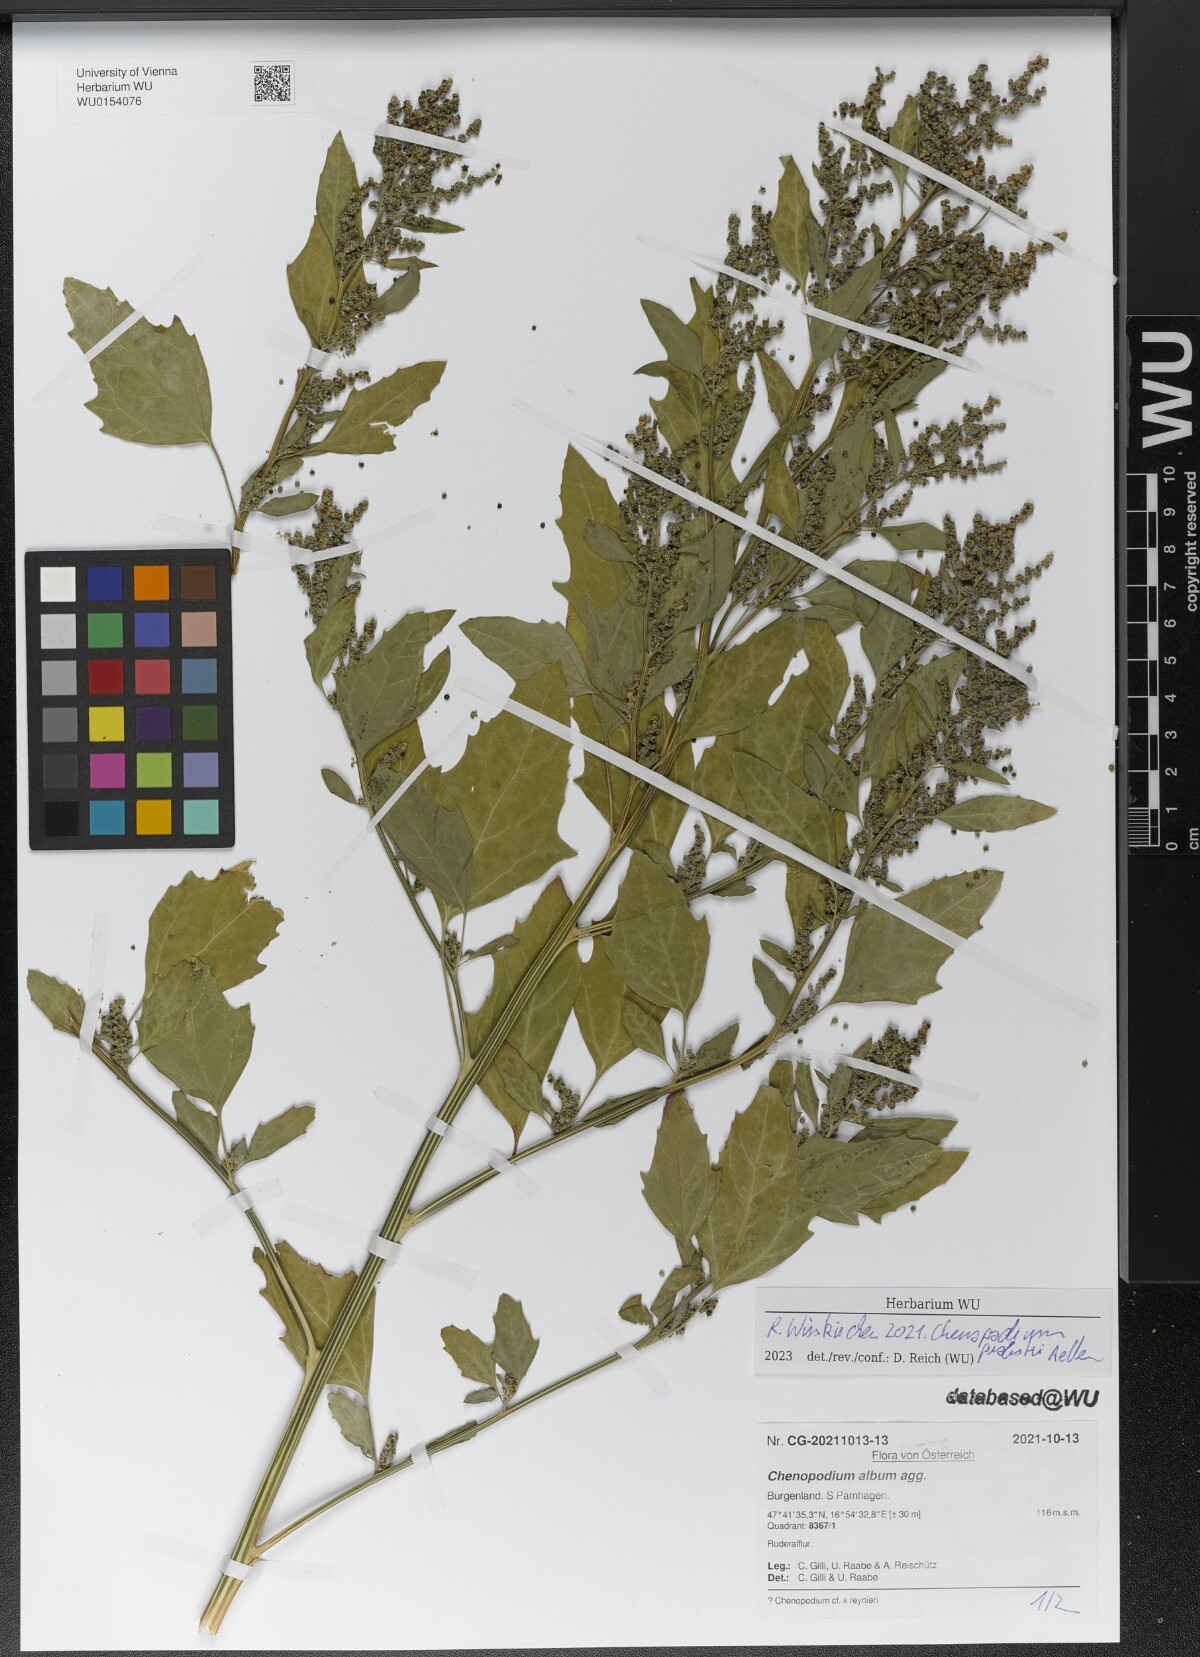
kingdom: Plantae
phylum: Tracheophyta
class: Magnoliopsida
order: Caryophyllales
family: Amaranthaceae
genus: Chenopodium
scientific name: Chenopodium probstii
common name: Probst's goosefoot
